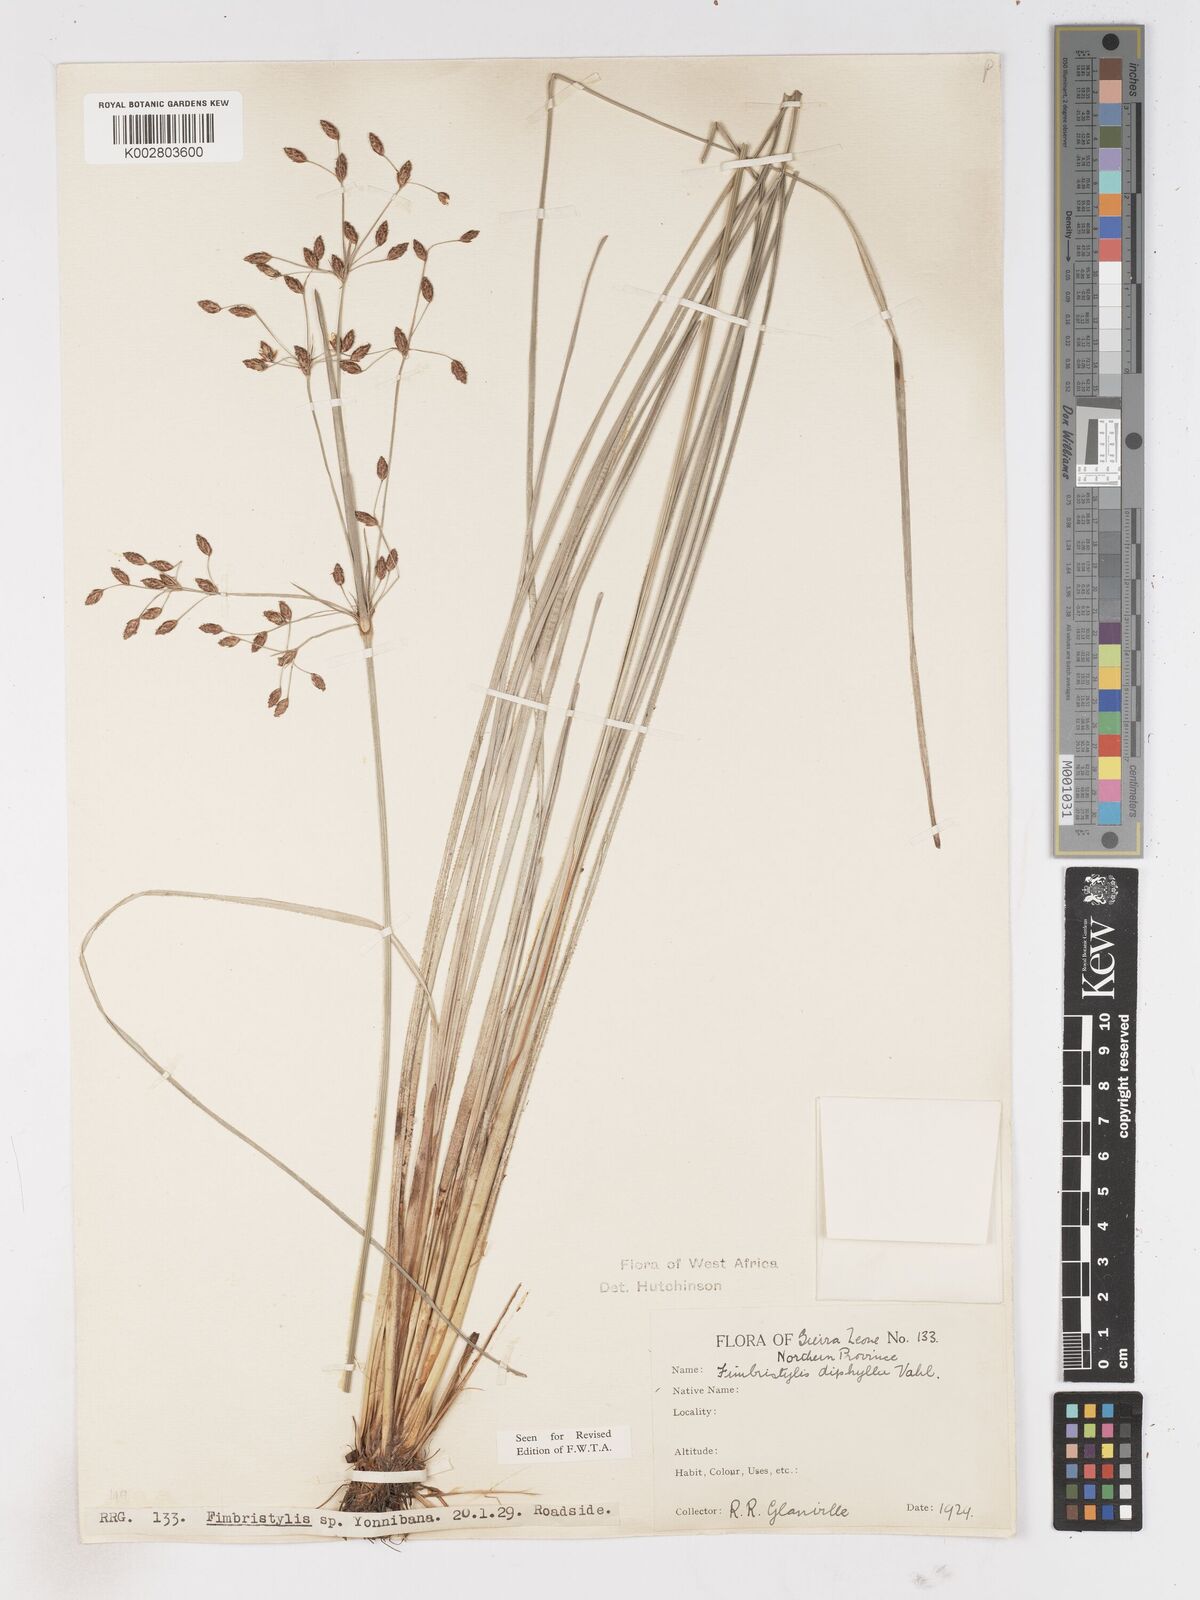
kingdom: Plantae
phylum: Tracheophyta
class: Liliopsida
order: Poales
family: Cyperaceae
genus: Fimbristylis
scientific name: Fimbristylis dichotoma
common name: Forked fimbry
